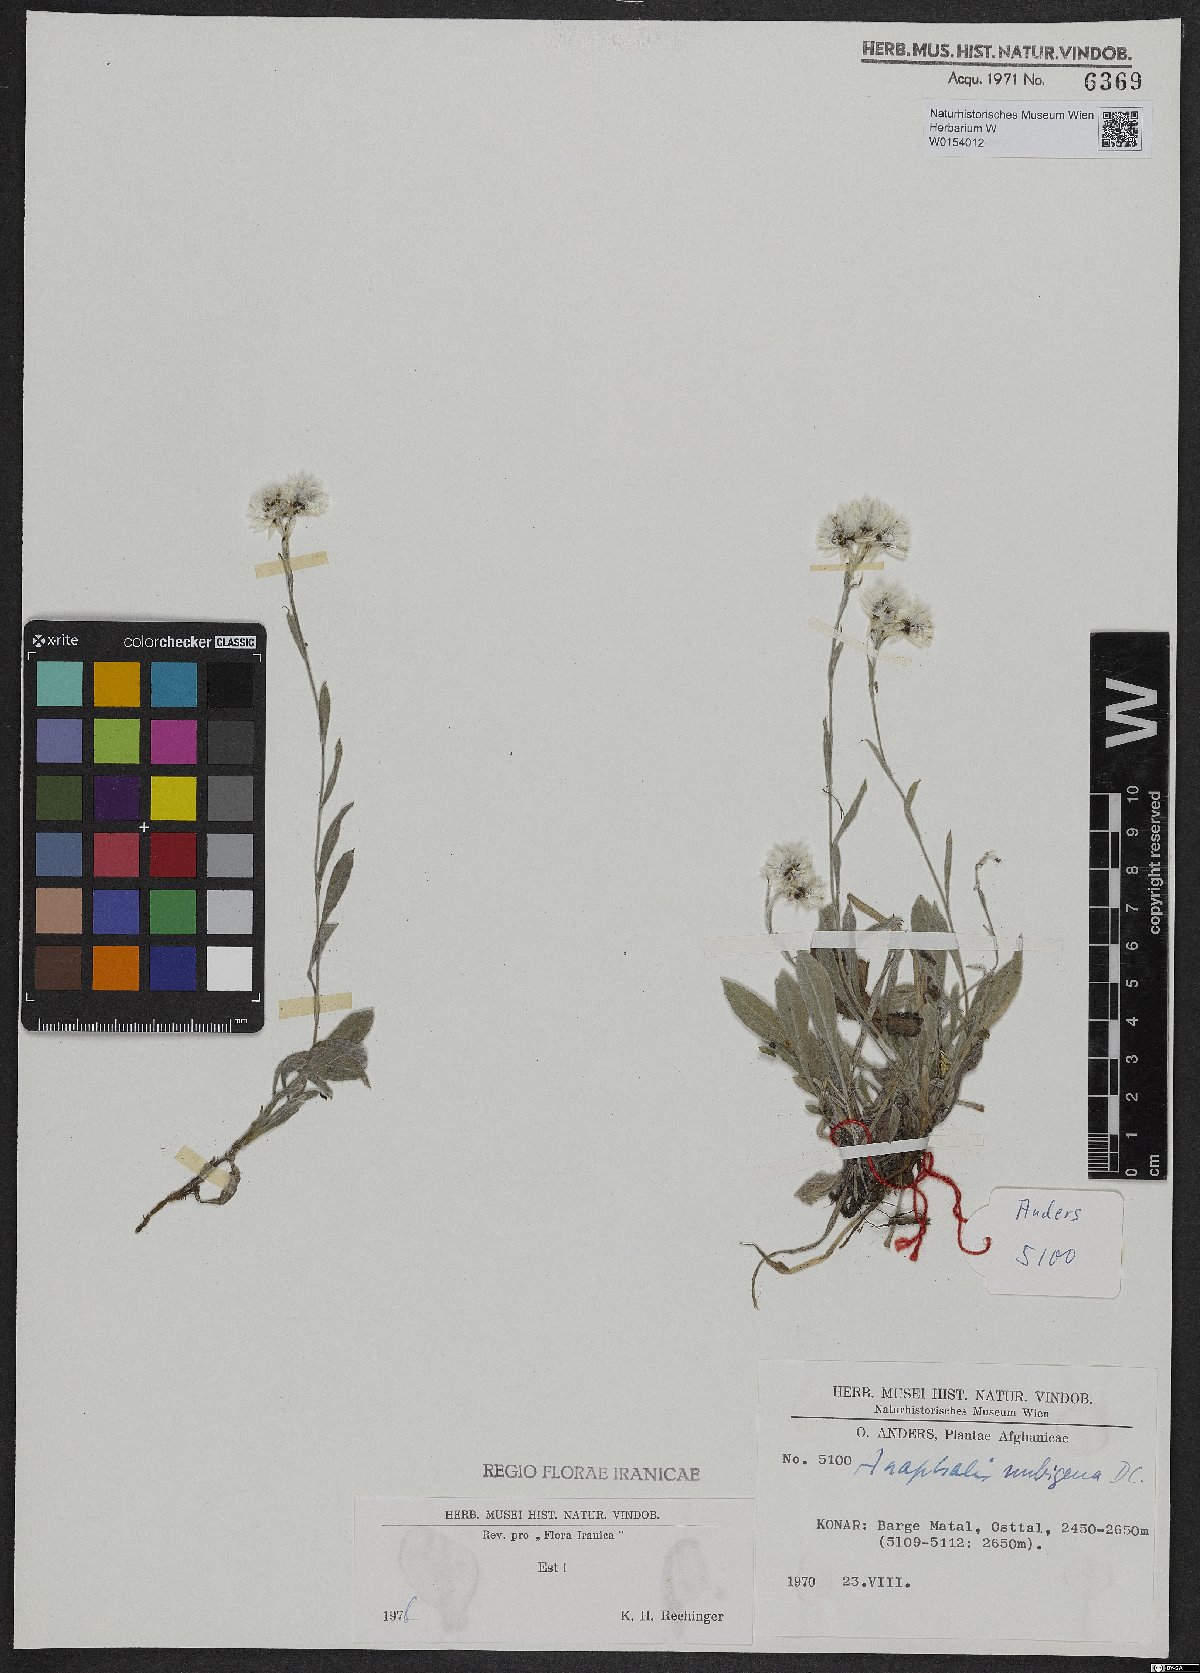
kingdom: Plantae
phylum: Tracheophyta
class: Magnoliopsida
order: Asterales
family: Asteraceae
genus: Anaphalis
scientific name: Anaphalis nepalensis
